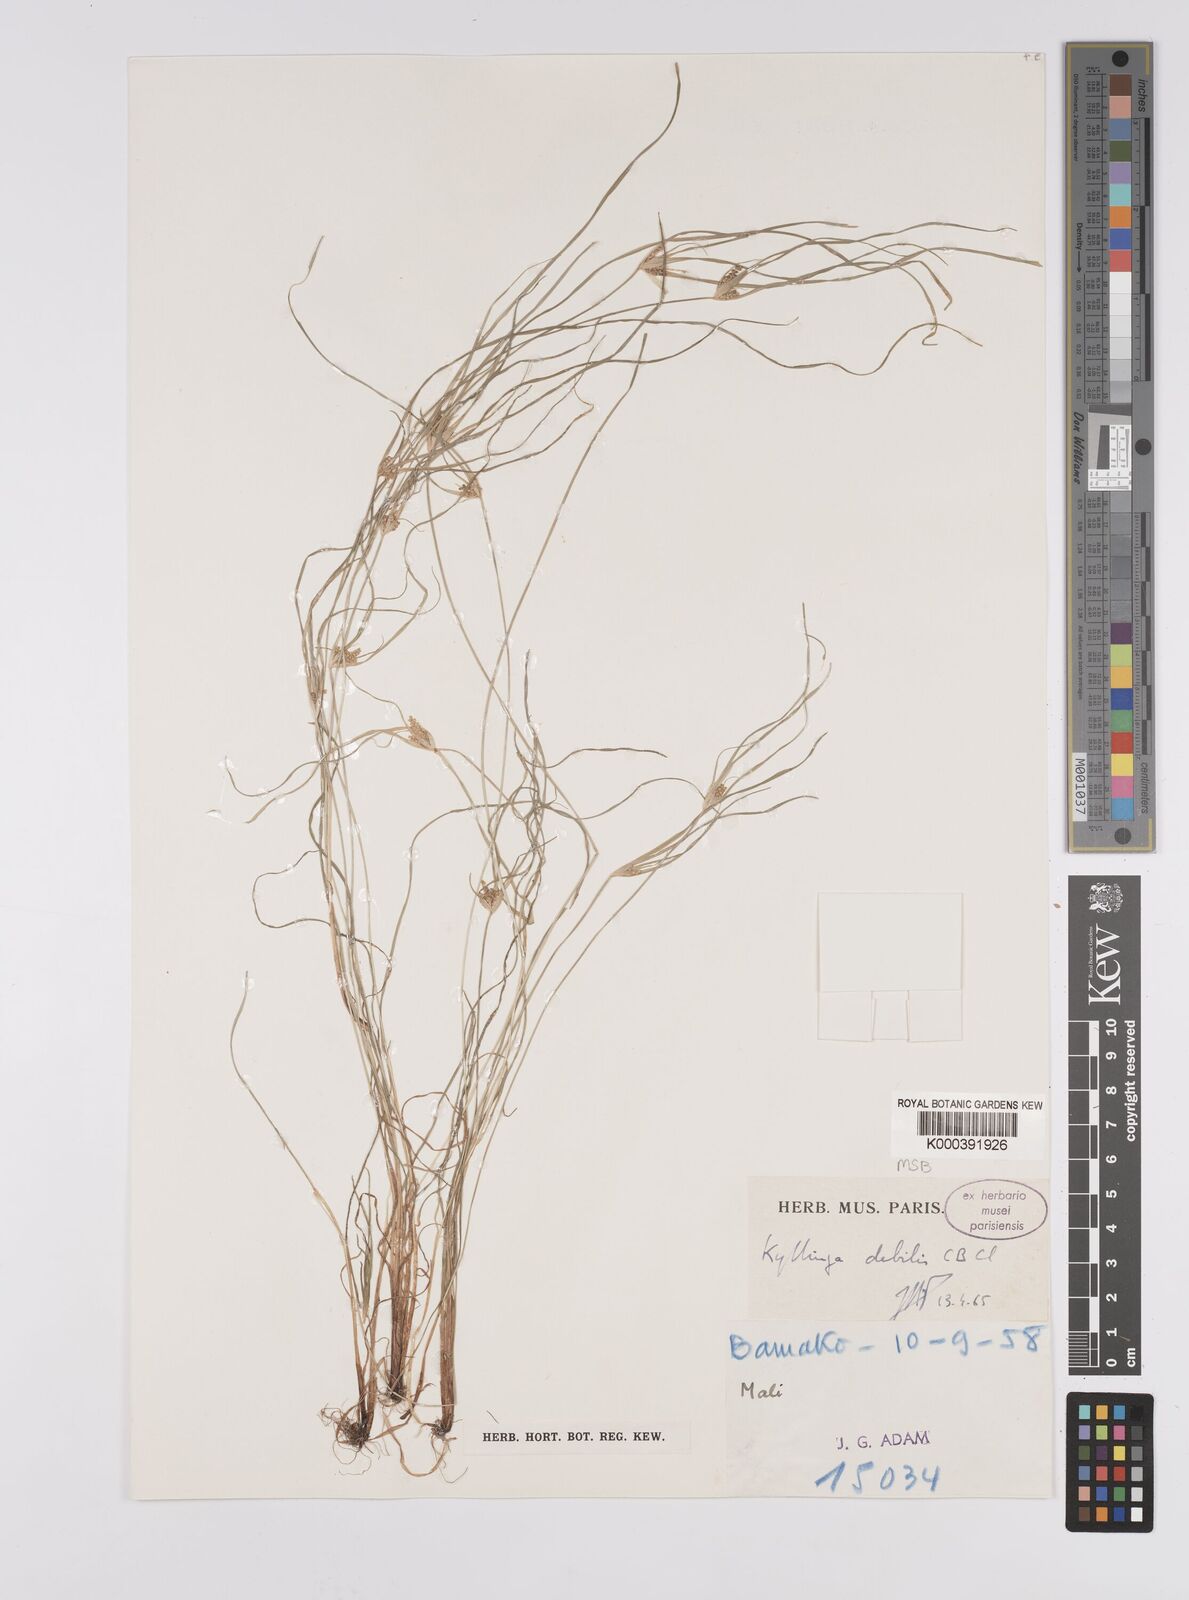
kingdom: Plantae
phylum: Tracheophyta
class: Liliopsida
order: Poales
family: Cyperaceae
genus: Cyperus
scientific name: Cyperus leptorhachis
